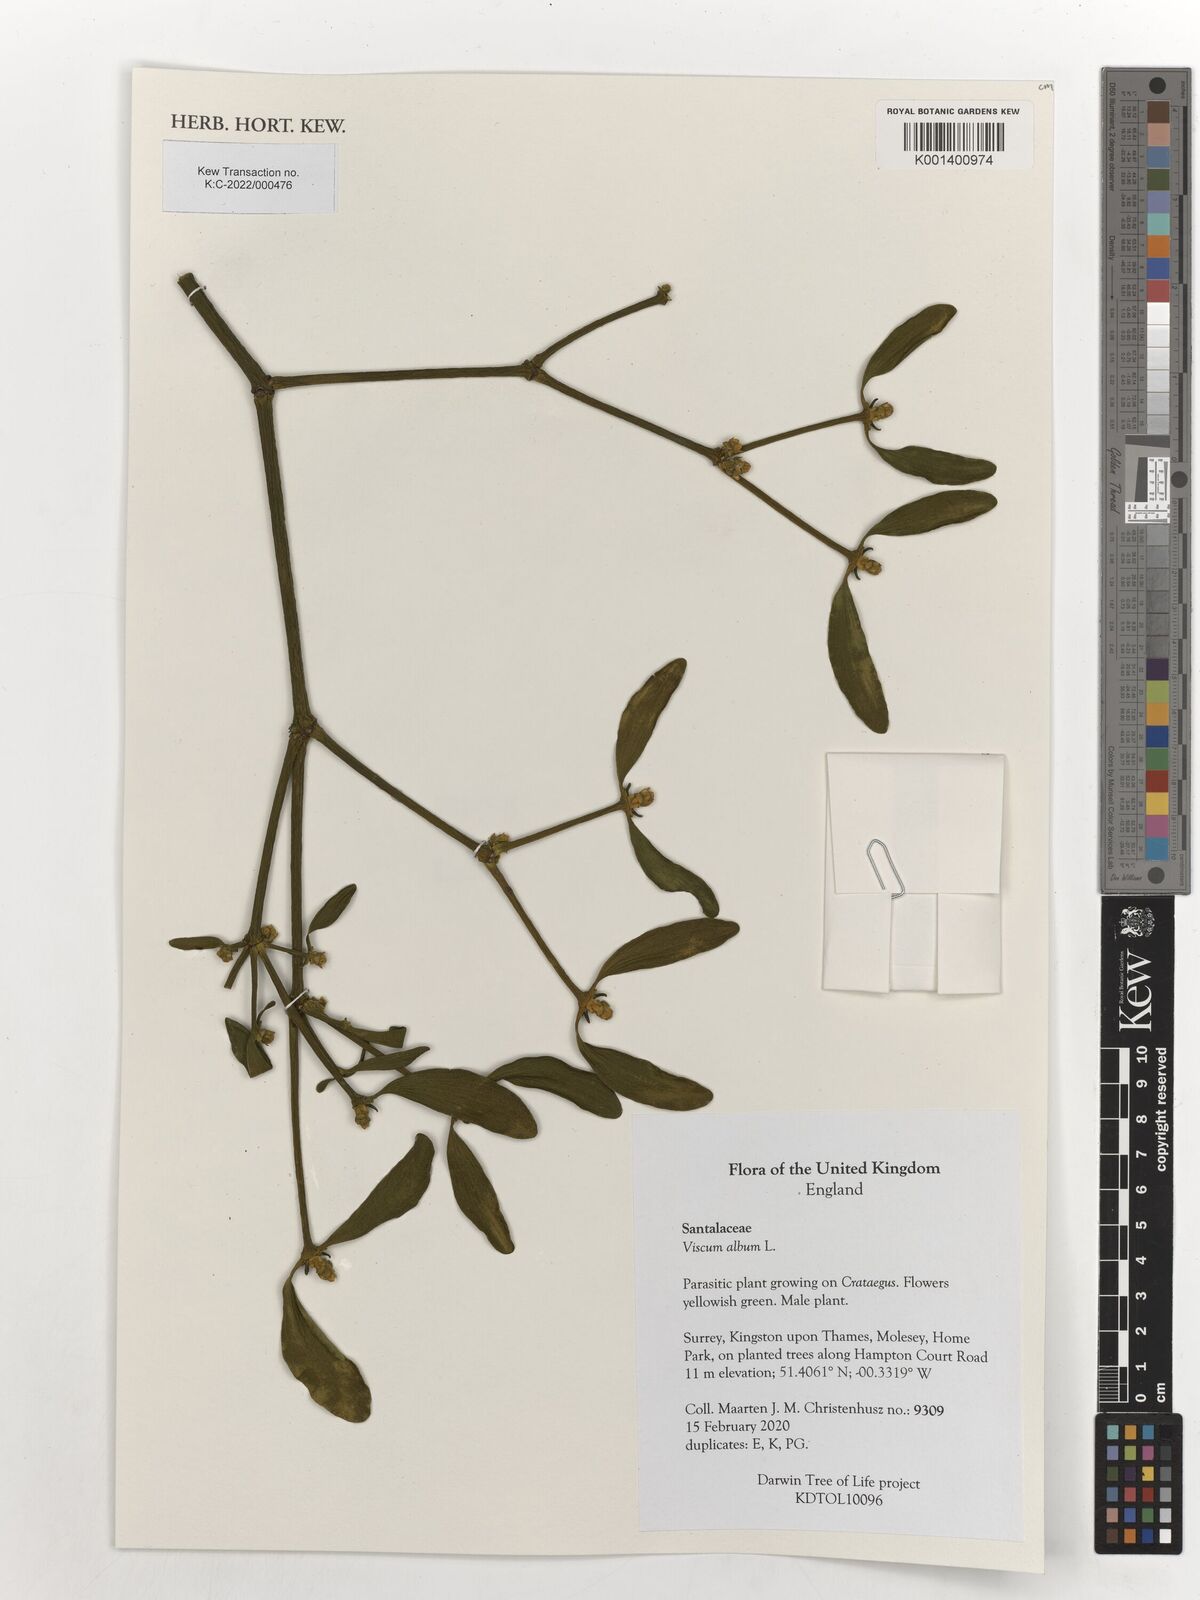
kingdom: Plantae
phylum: Tracheophyta
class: Magnoliopsida
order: Santalales
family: Viscaceae
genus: Viscum
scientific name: Viscum album
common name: Mistletoe
